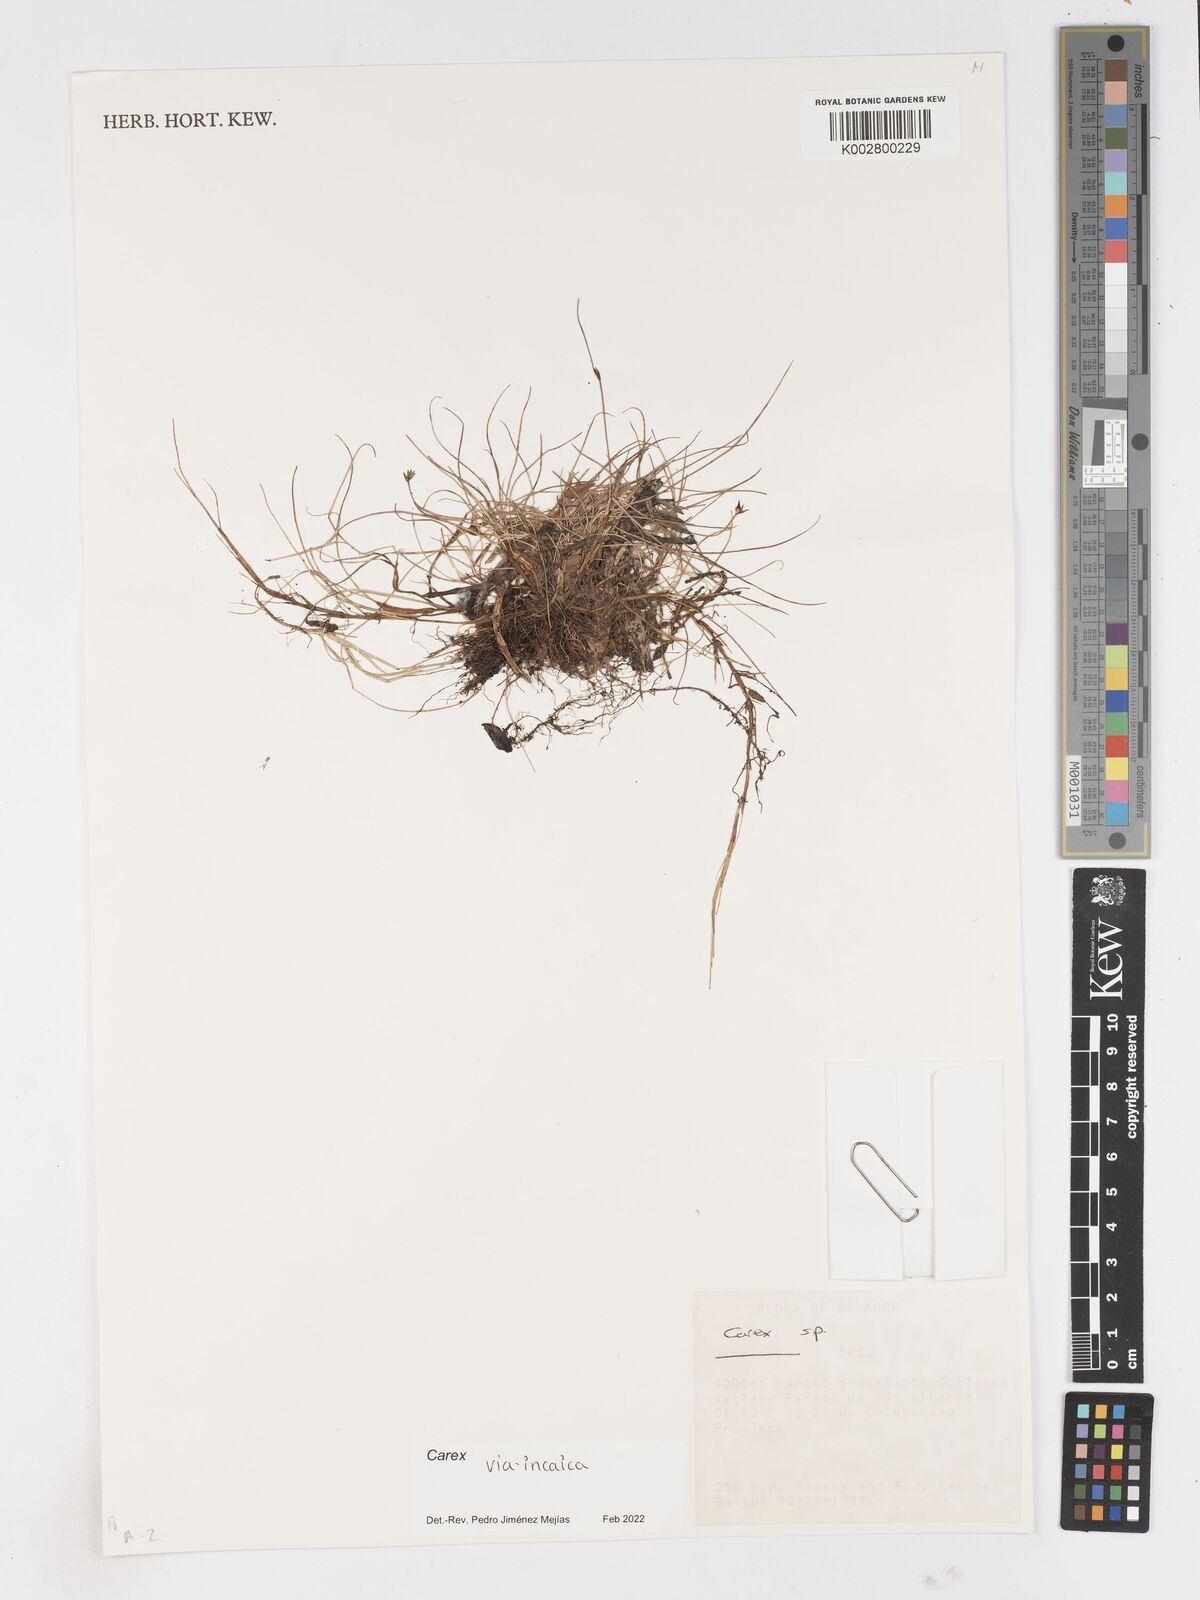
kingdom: Plantae
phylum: Tracheophyta
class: Liliopsida
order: Poales
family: Cyperaceae
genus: Carex
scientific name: Carex via-incaica
